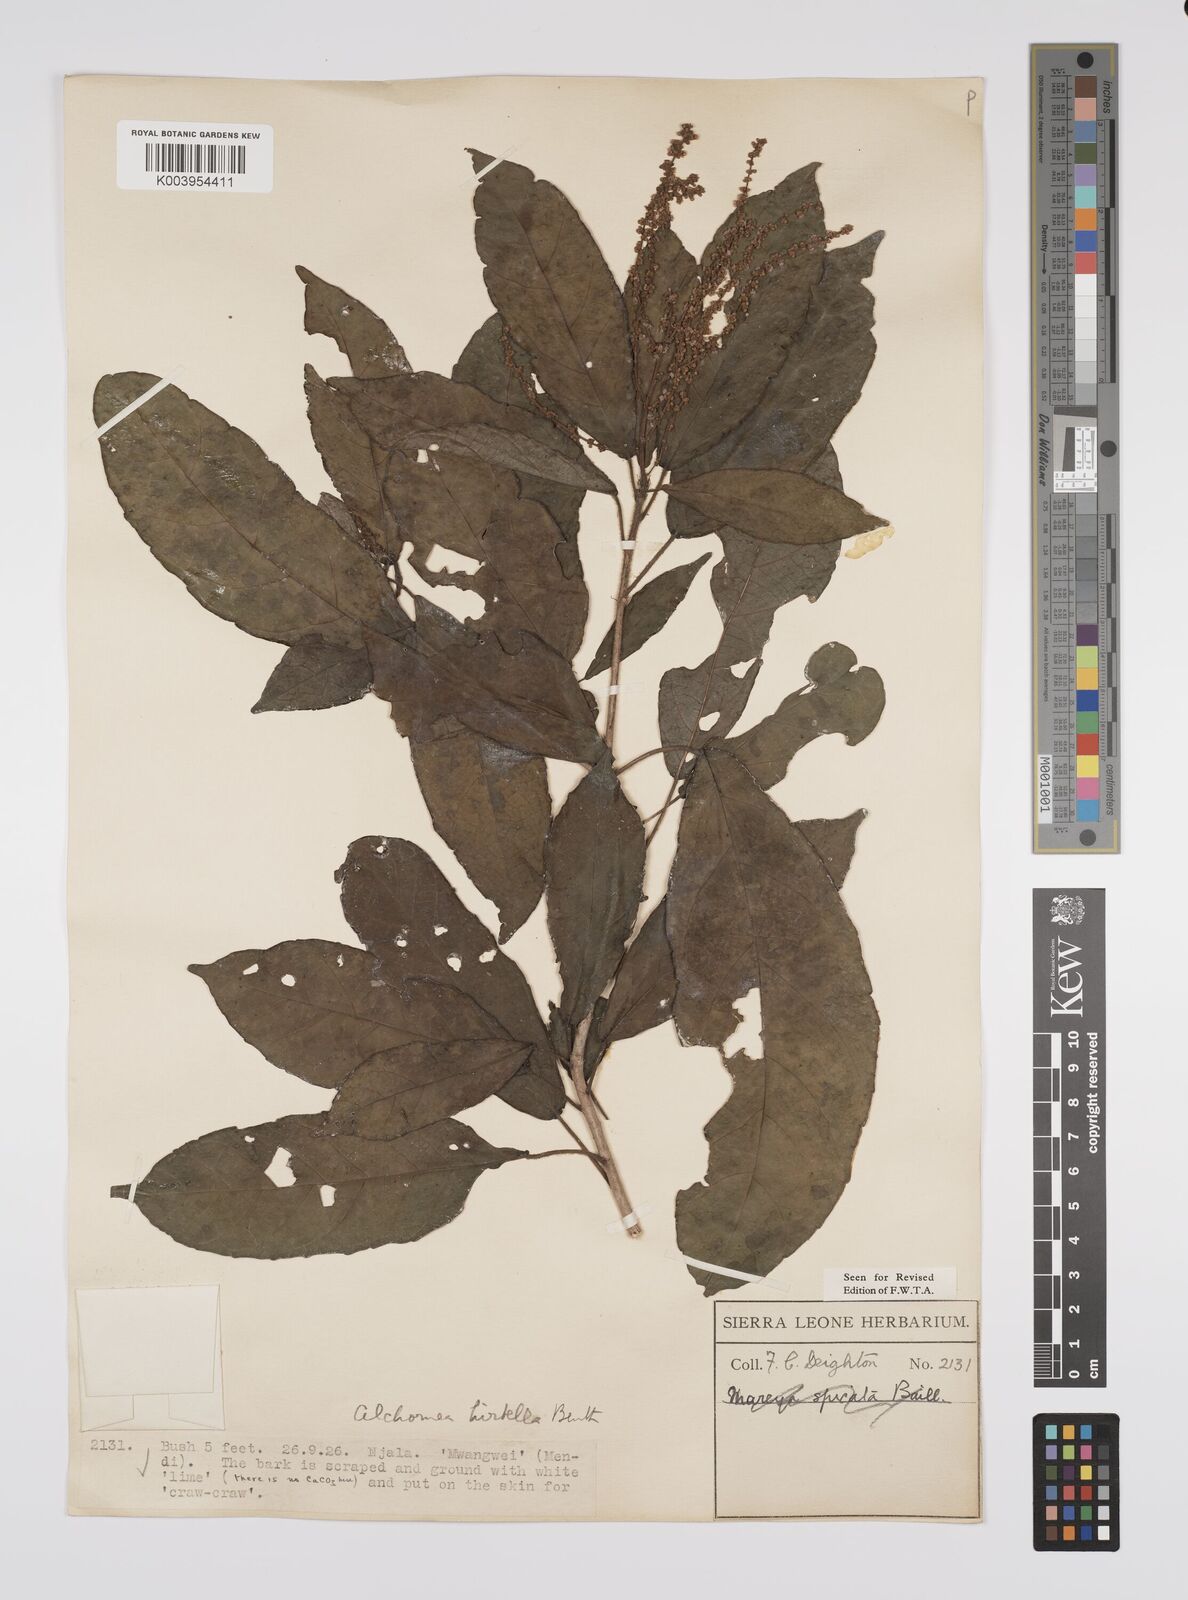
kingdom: Plantae
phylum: Tracheophyta
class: Magnoliopsida
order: Malpighiales
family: Euphorbiaceae
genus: Alchornea
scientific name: Alchornea hirtella
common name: Forest bead-string
